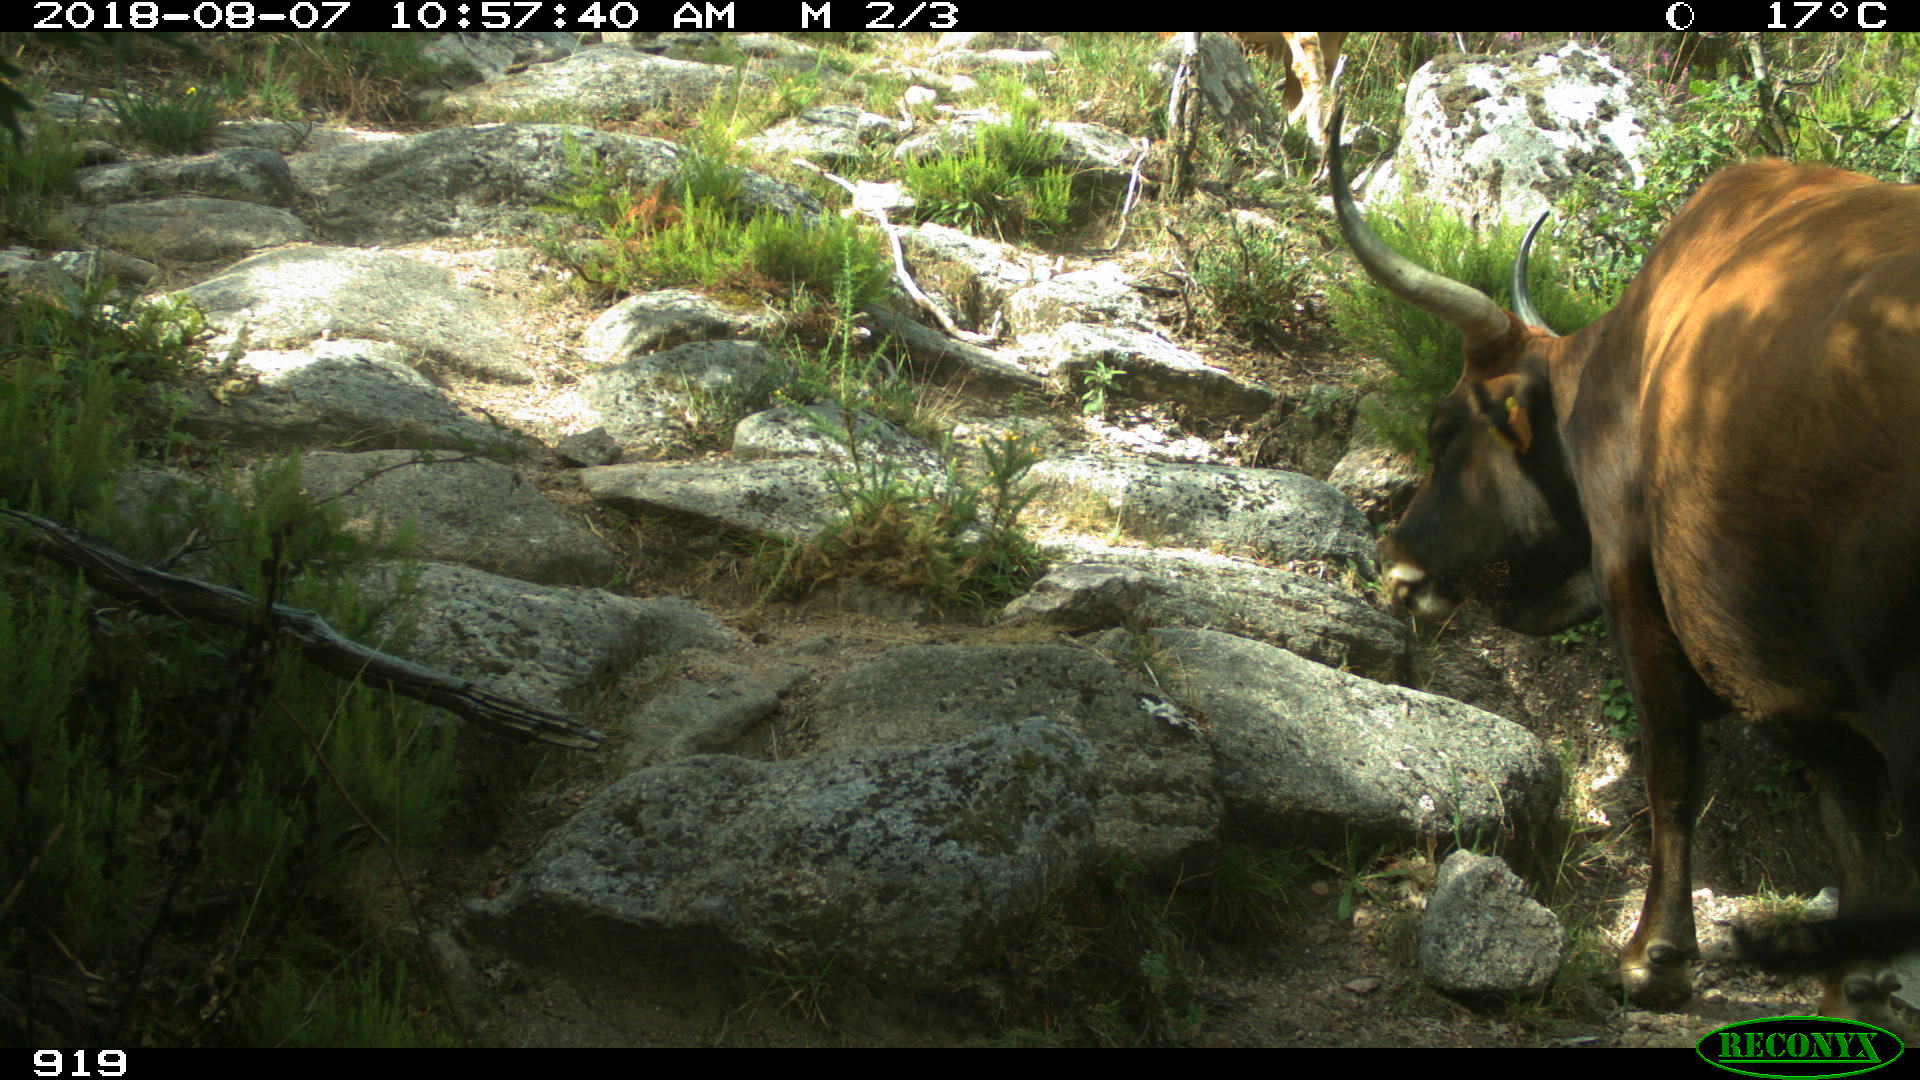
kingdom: Animalia
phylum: Chordata
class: Mammalia
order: Artiodactyla
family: Bovidae
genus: Bos
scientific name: Bos taurus
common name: Domesticated cattle
